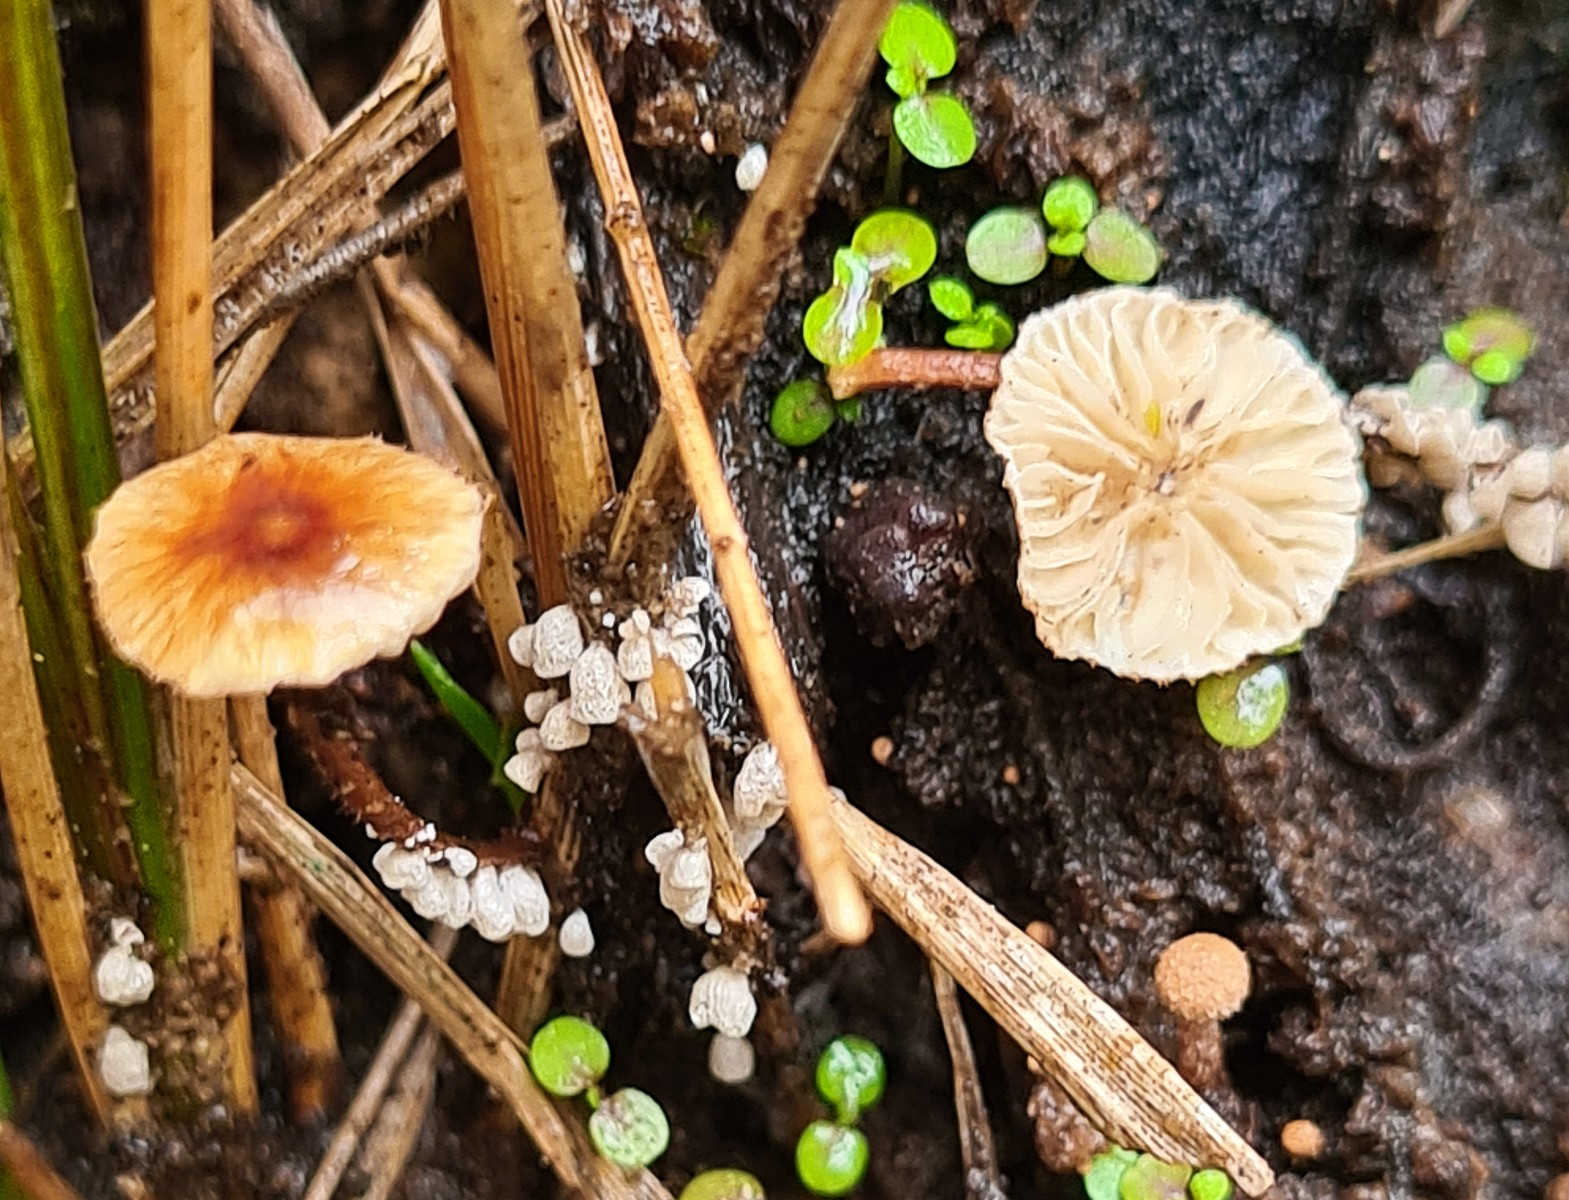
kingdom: Fungi
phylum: Basidiomycota
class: Agaricomycetes
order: Agaricales
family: Marasmiaceae
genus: Crinipellis
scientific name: Crinipellis scabella
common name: børstefod
